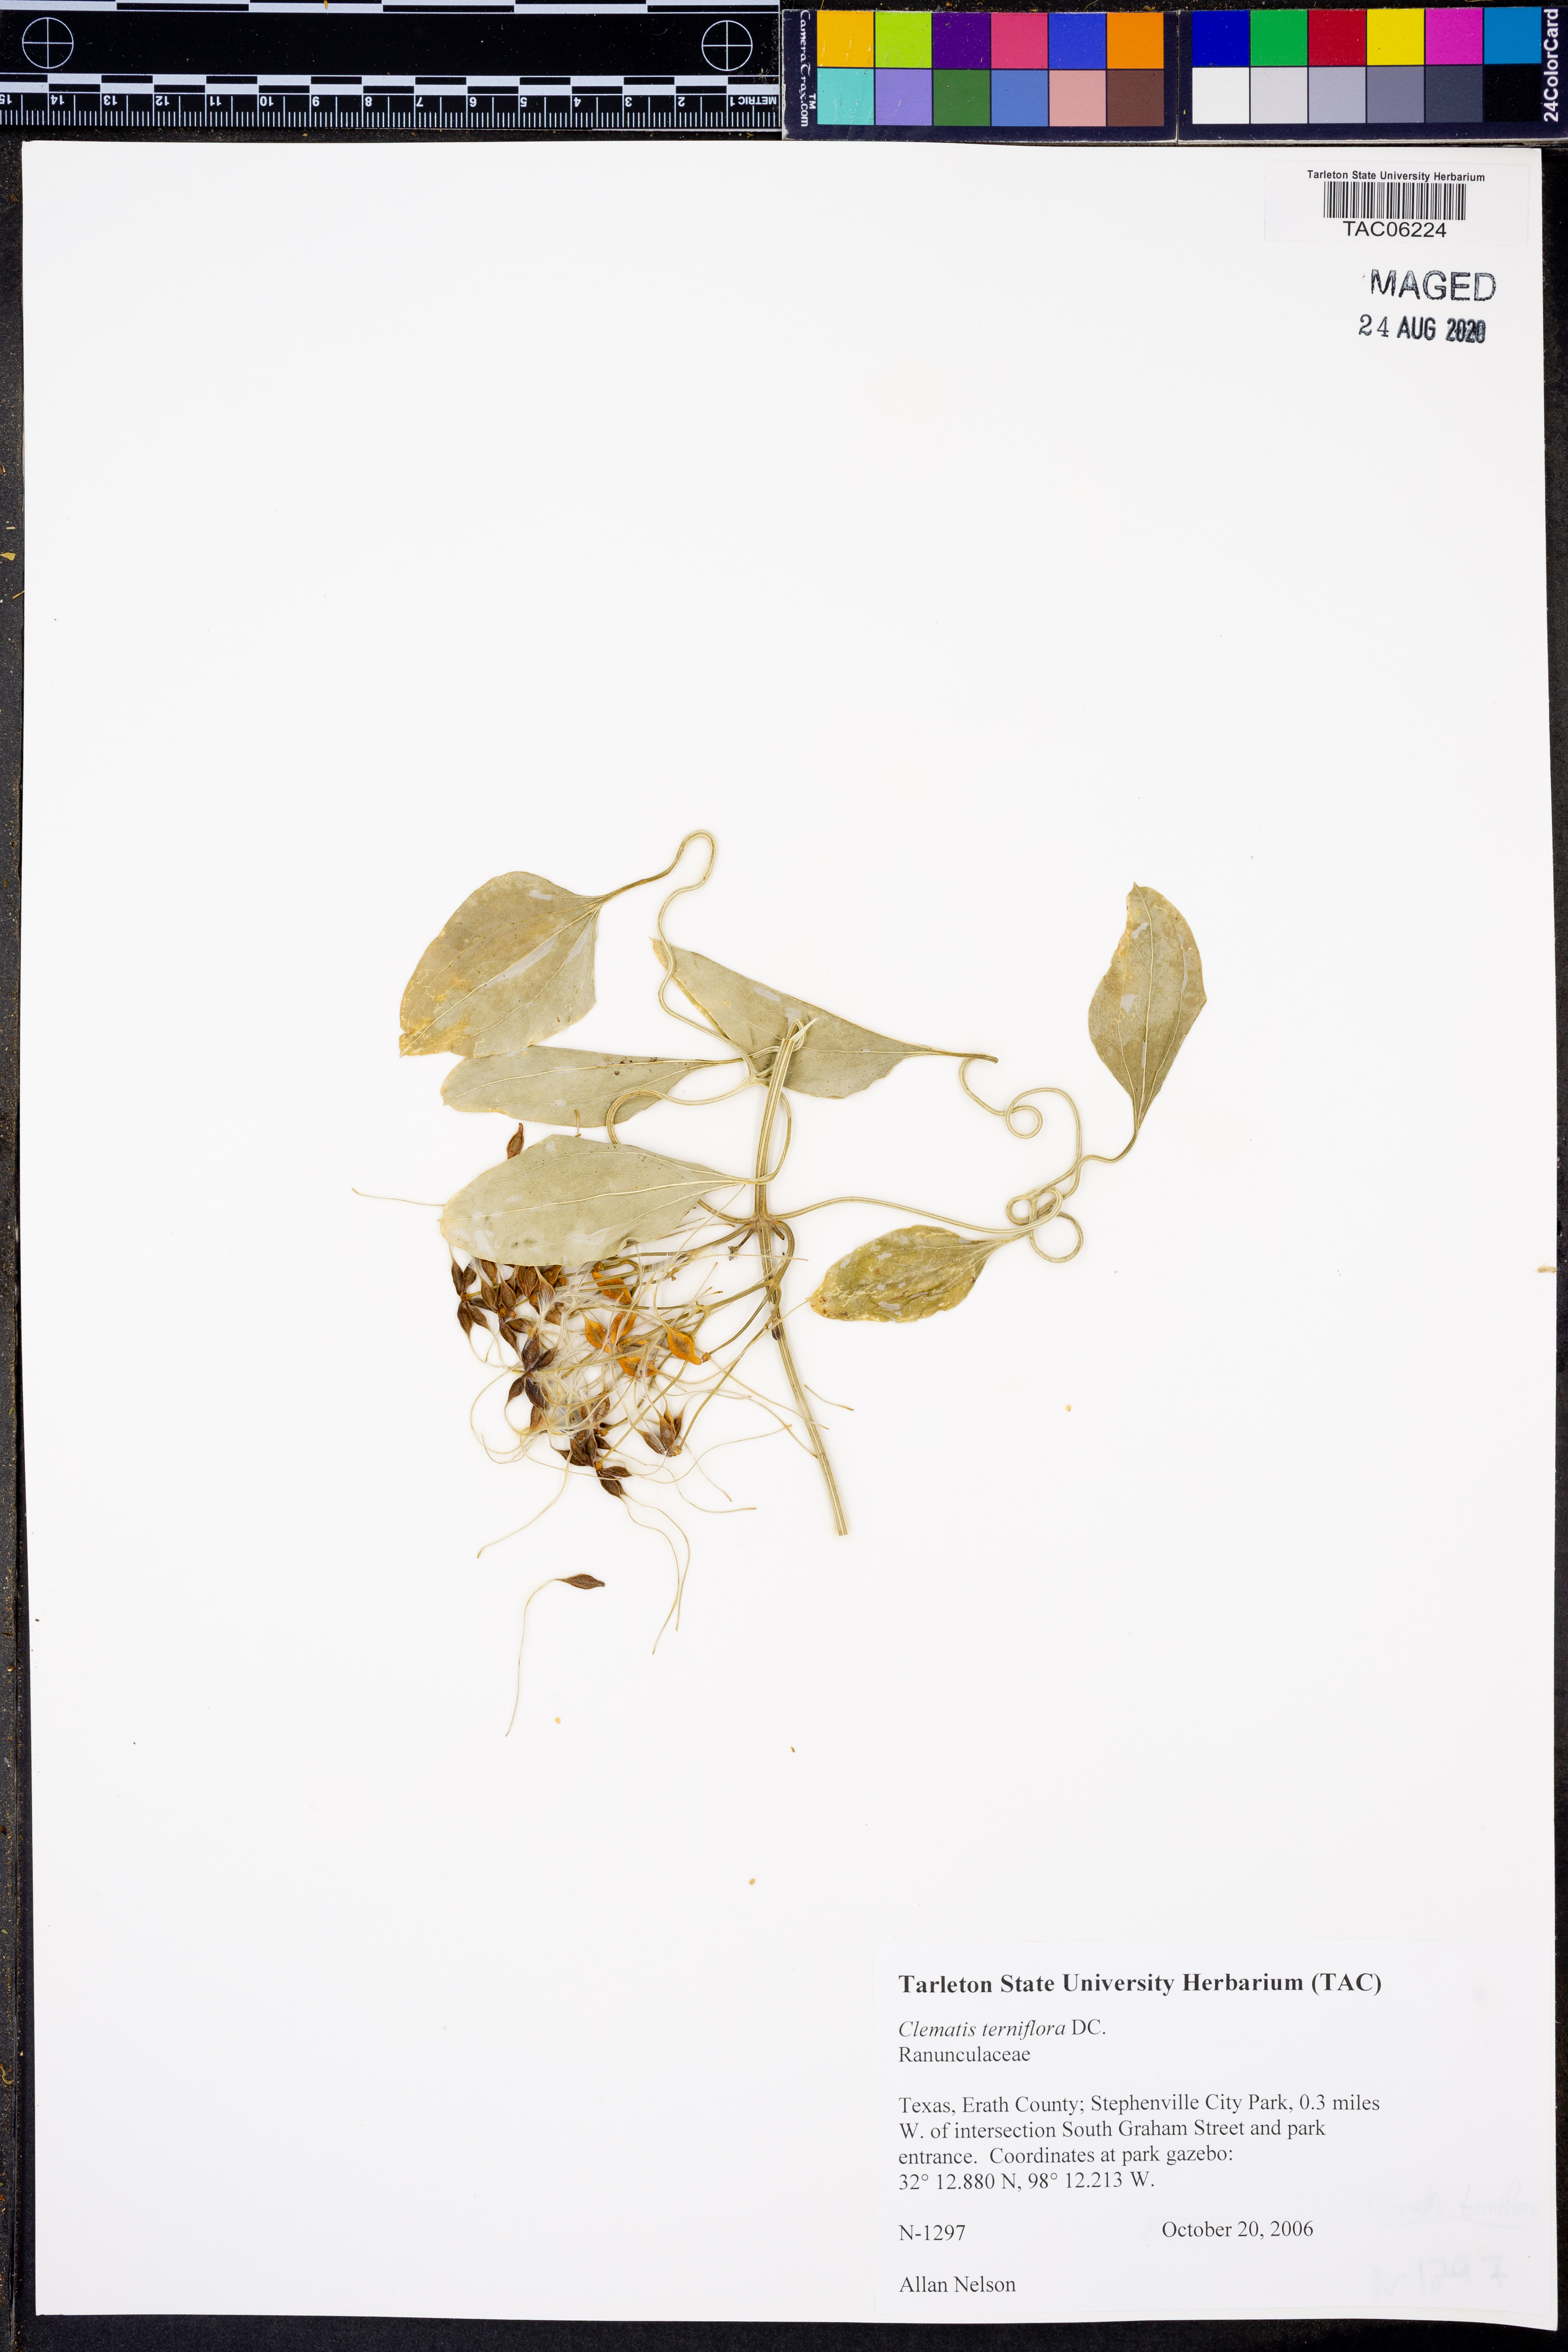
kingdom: Plantae
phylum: Tracheophyta
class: Magnoliopsida
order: Ranunculales
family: Ranunculaceae
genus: Clematis
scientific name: Clematis terniflora
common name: Sweet autumn clematis
